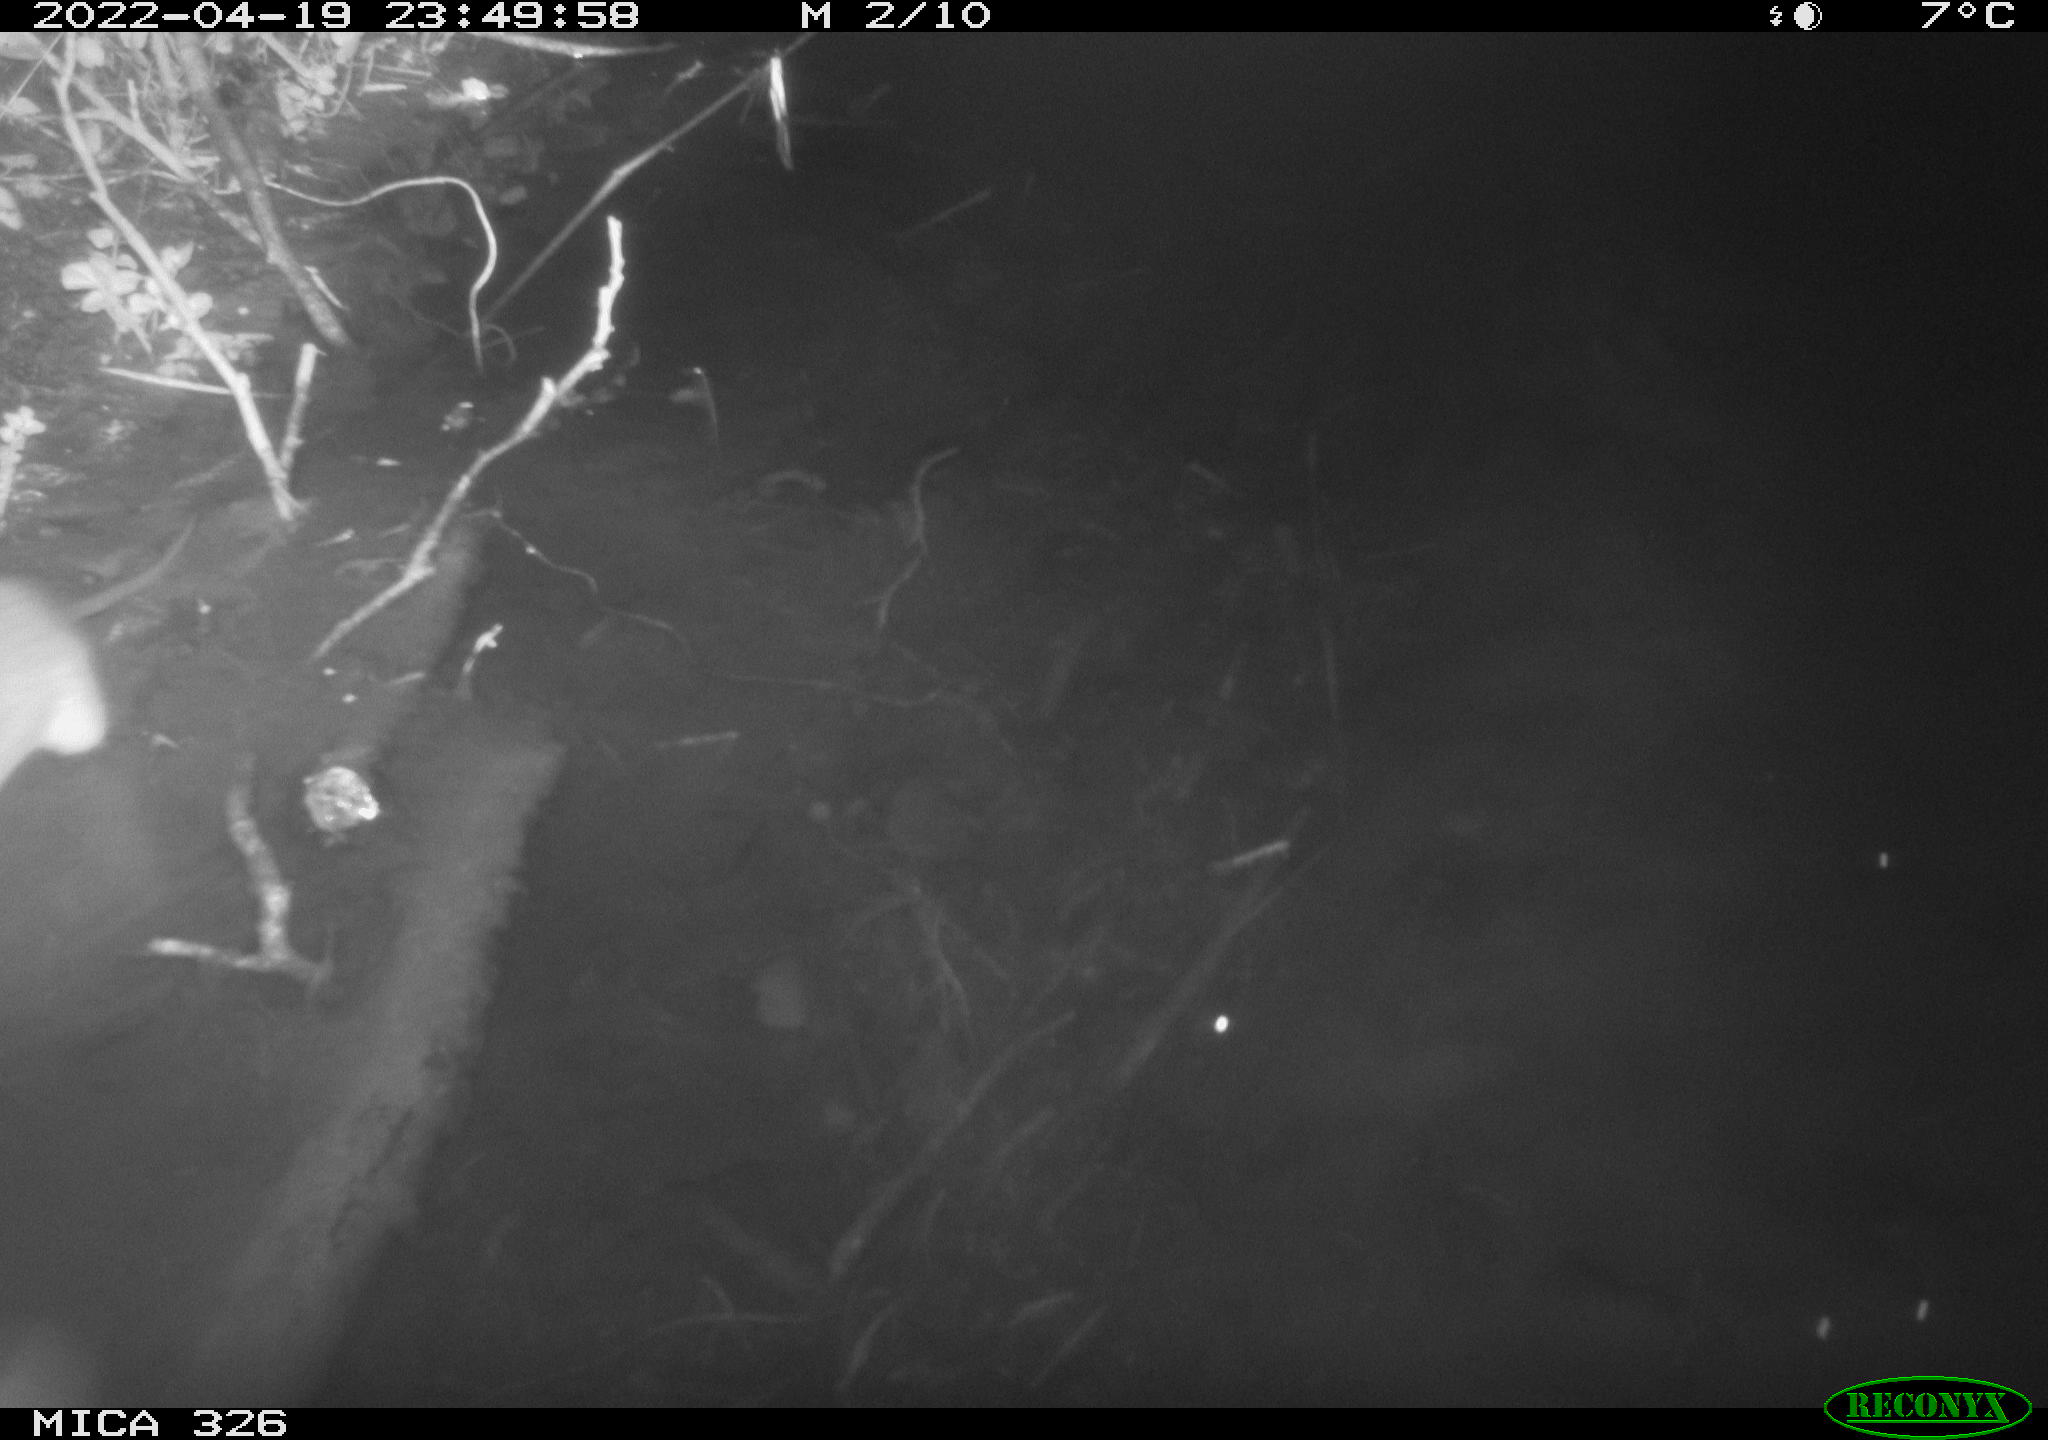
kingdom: Animalia
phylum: Chordata
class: Mammalia
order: Rodentia
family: Muridae
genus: Rattus
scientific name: Rattus norvegicus
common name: Brown rat
